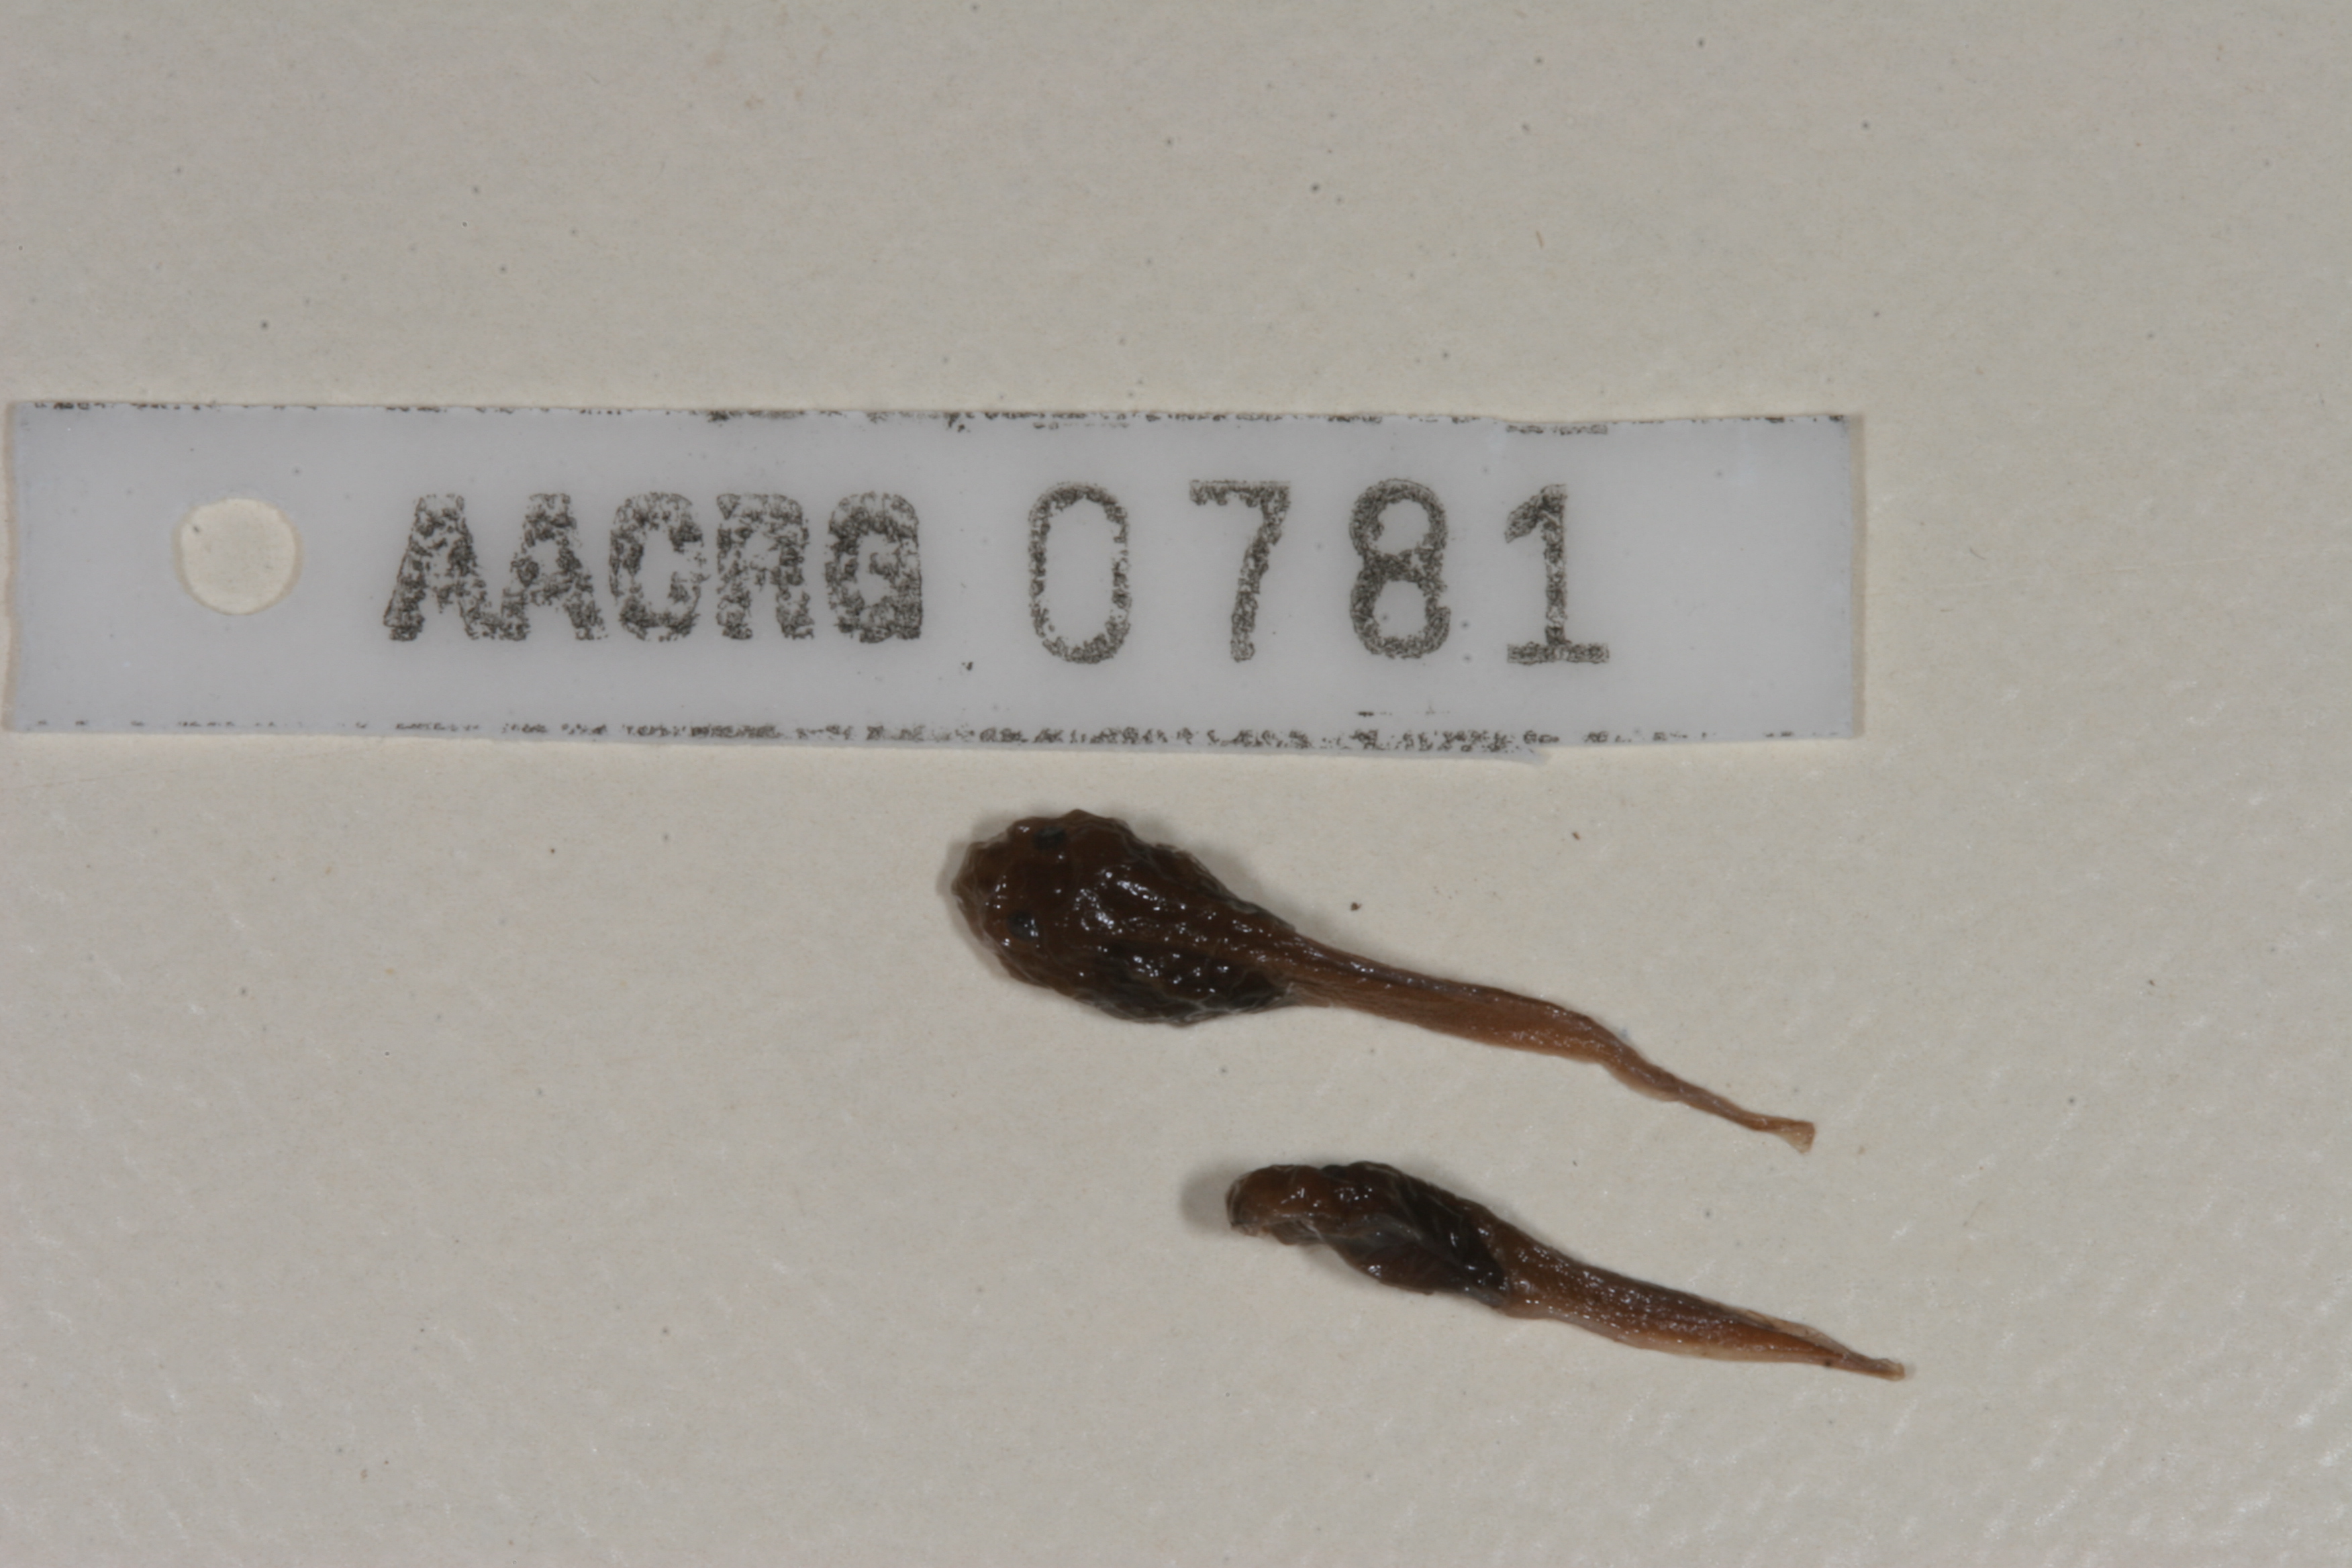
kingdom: Animalia
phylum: Chordata
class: Amphibia
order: Anura
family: Bufonidae
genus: Sclerophrys
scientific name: Sclerophrys maculata
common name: Hallowell's toad
